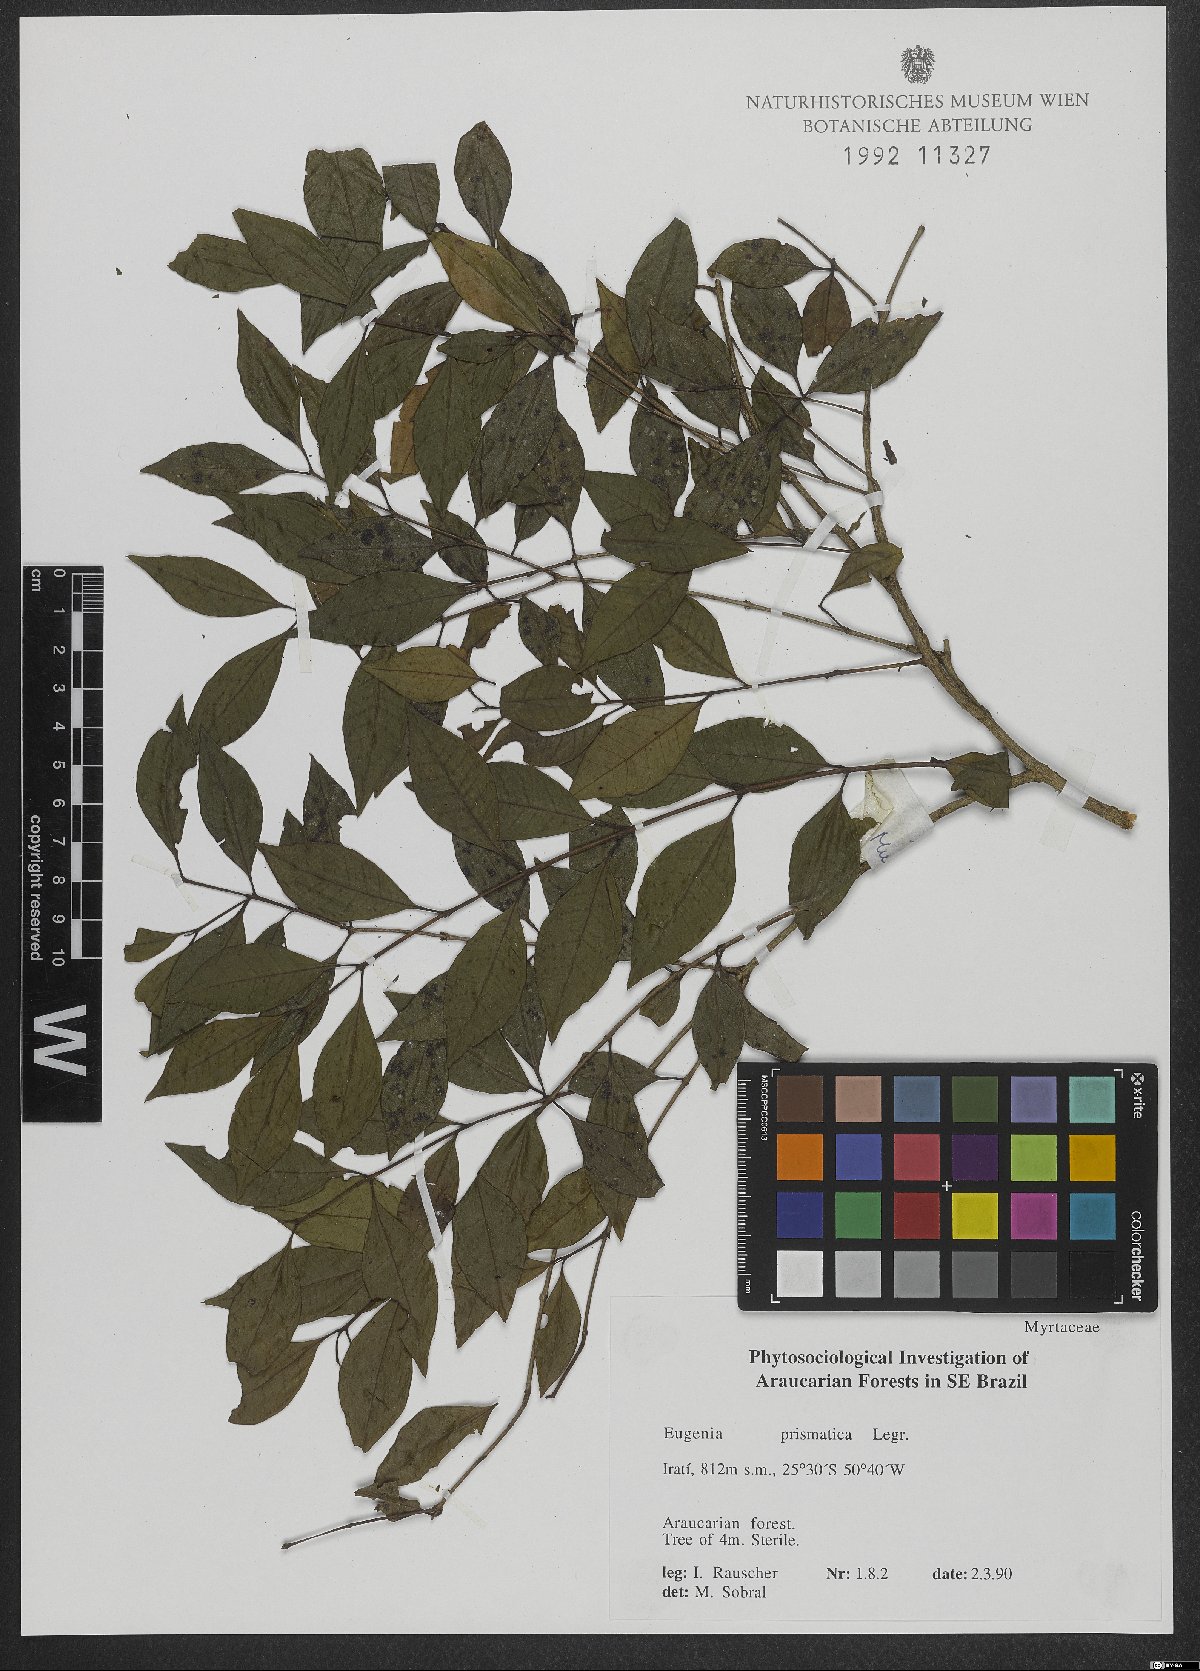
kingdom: Plantae
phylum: Tracheophyta
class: Magnoliopsida
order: Myrtales
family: Myrtaceae
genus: Curitiba
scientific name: Curitiba prismatica
